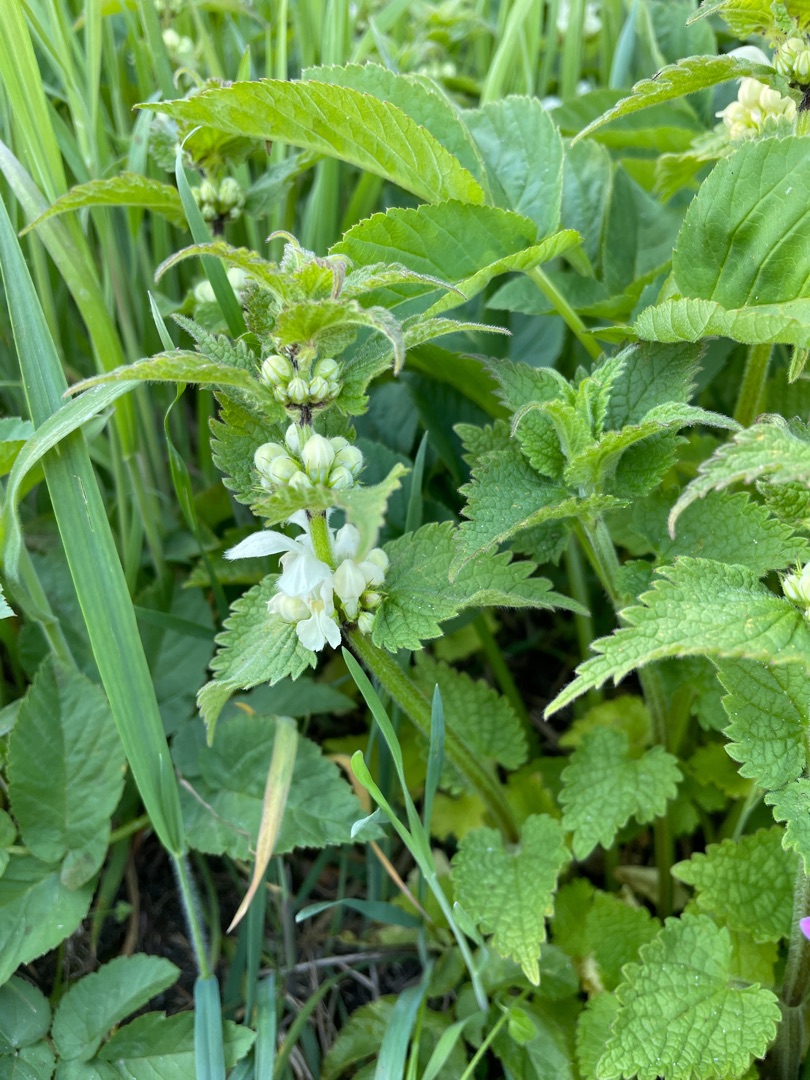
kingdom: Plantae
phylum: Tracheophyta
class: Magnoliopsida
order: Lamiales
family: Lamiaceae
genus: Lamium
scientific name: Lamium album
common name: Døvnælde
